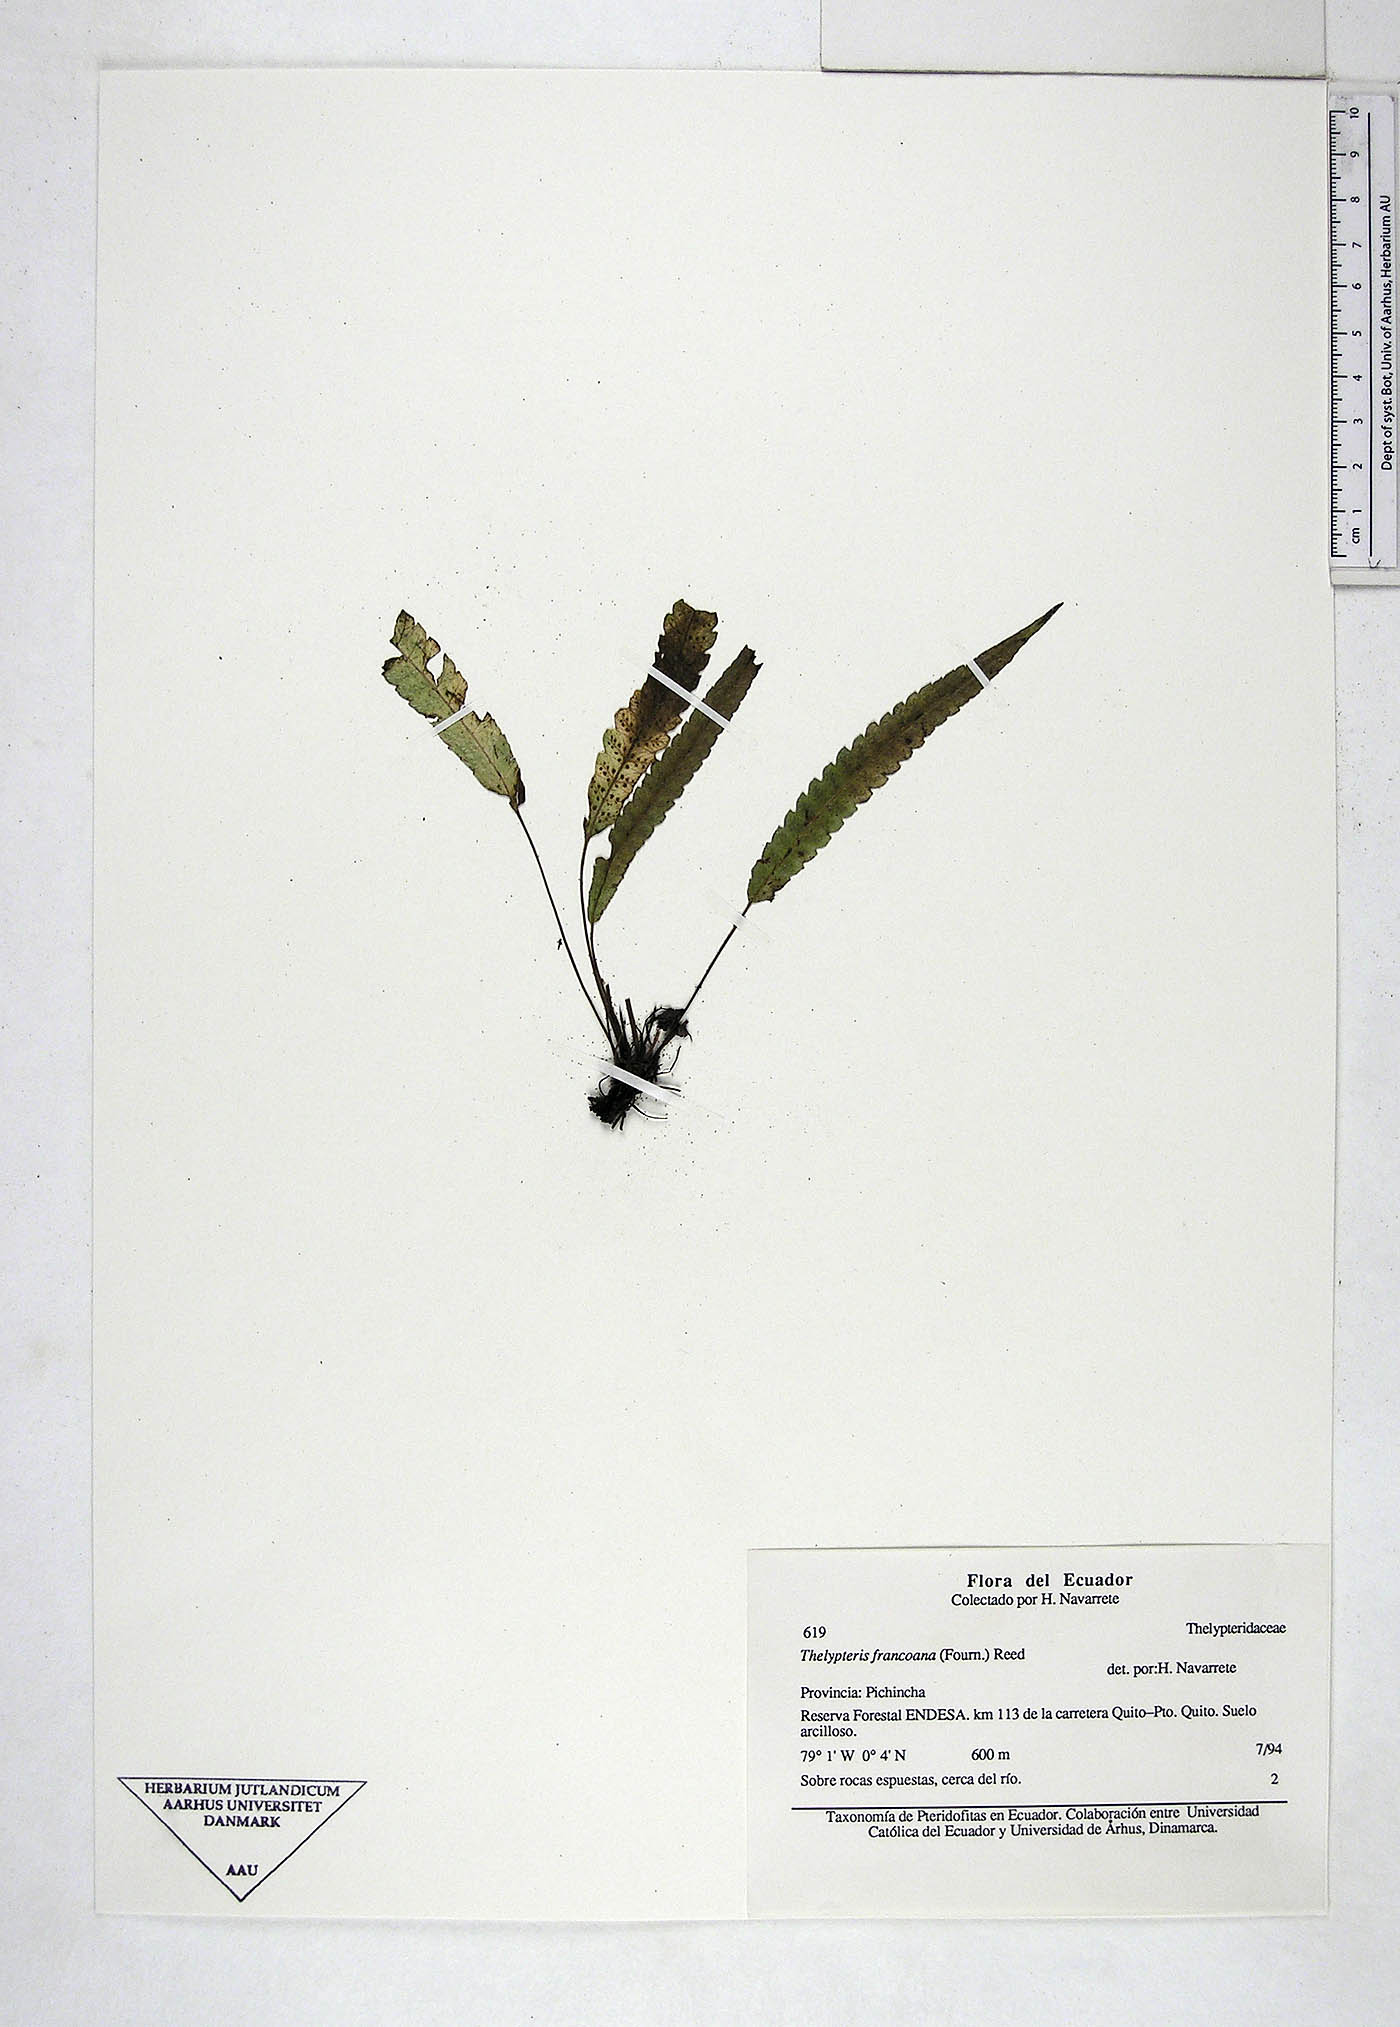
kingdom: Plantae
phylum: Tracheophyta
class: Polypodiopsida
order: Polypodiales
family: Thelypteridaceae
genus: Goniopteris
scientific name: Goniopteris francoana
